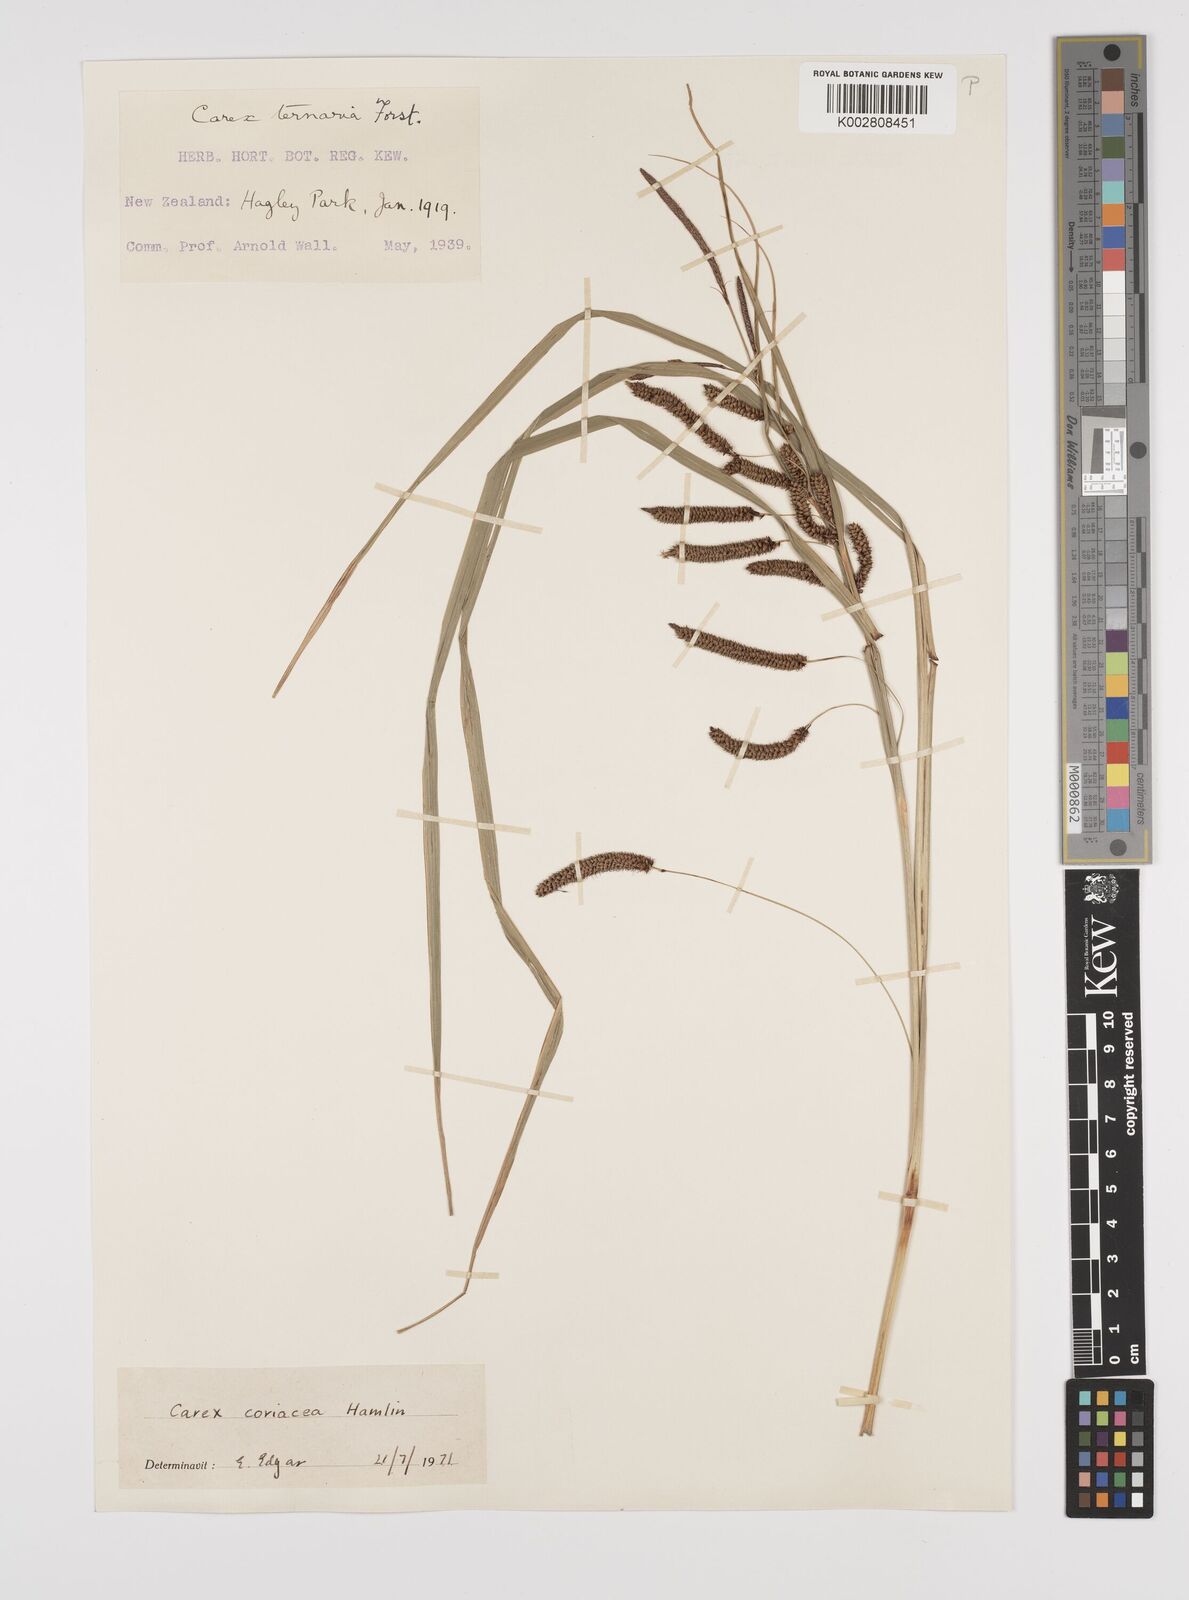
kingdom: Plantae
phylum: Tracheophyta
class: Liliopsida
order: Poales
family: Cyperaceae
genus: Carex
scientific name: Carex coriacea
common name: Rautahi
